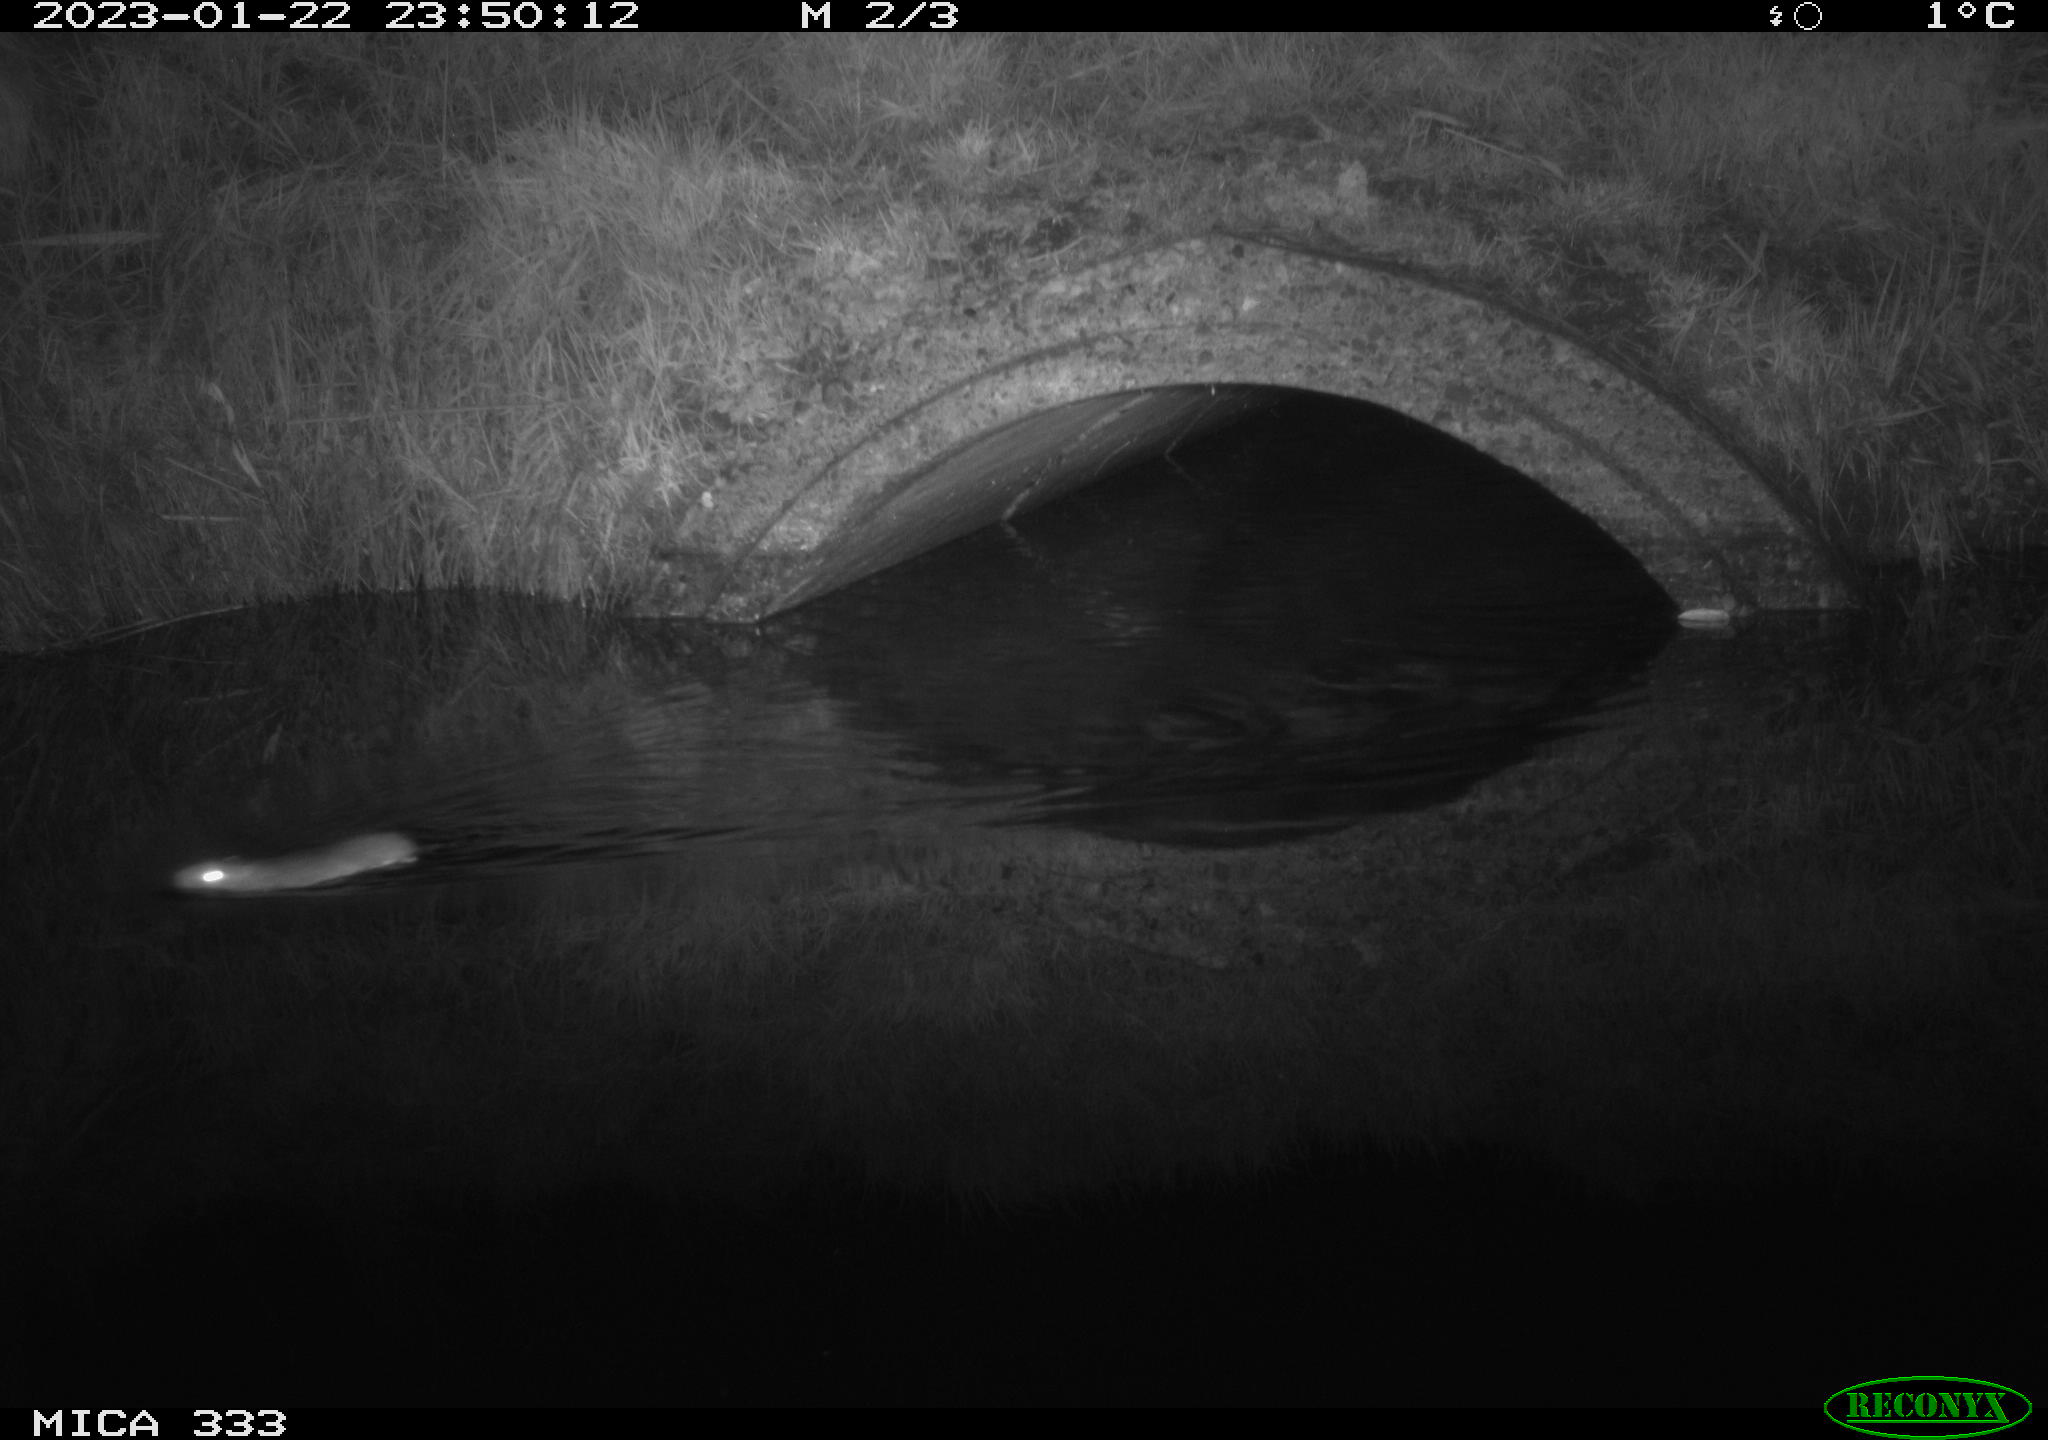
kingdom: Animalia
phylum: Chordata
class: Mammalia
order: Rodentia
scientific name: Rodentia
